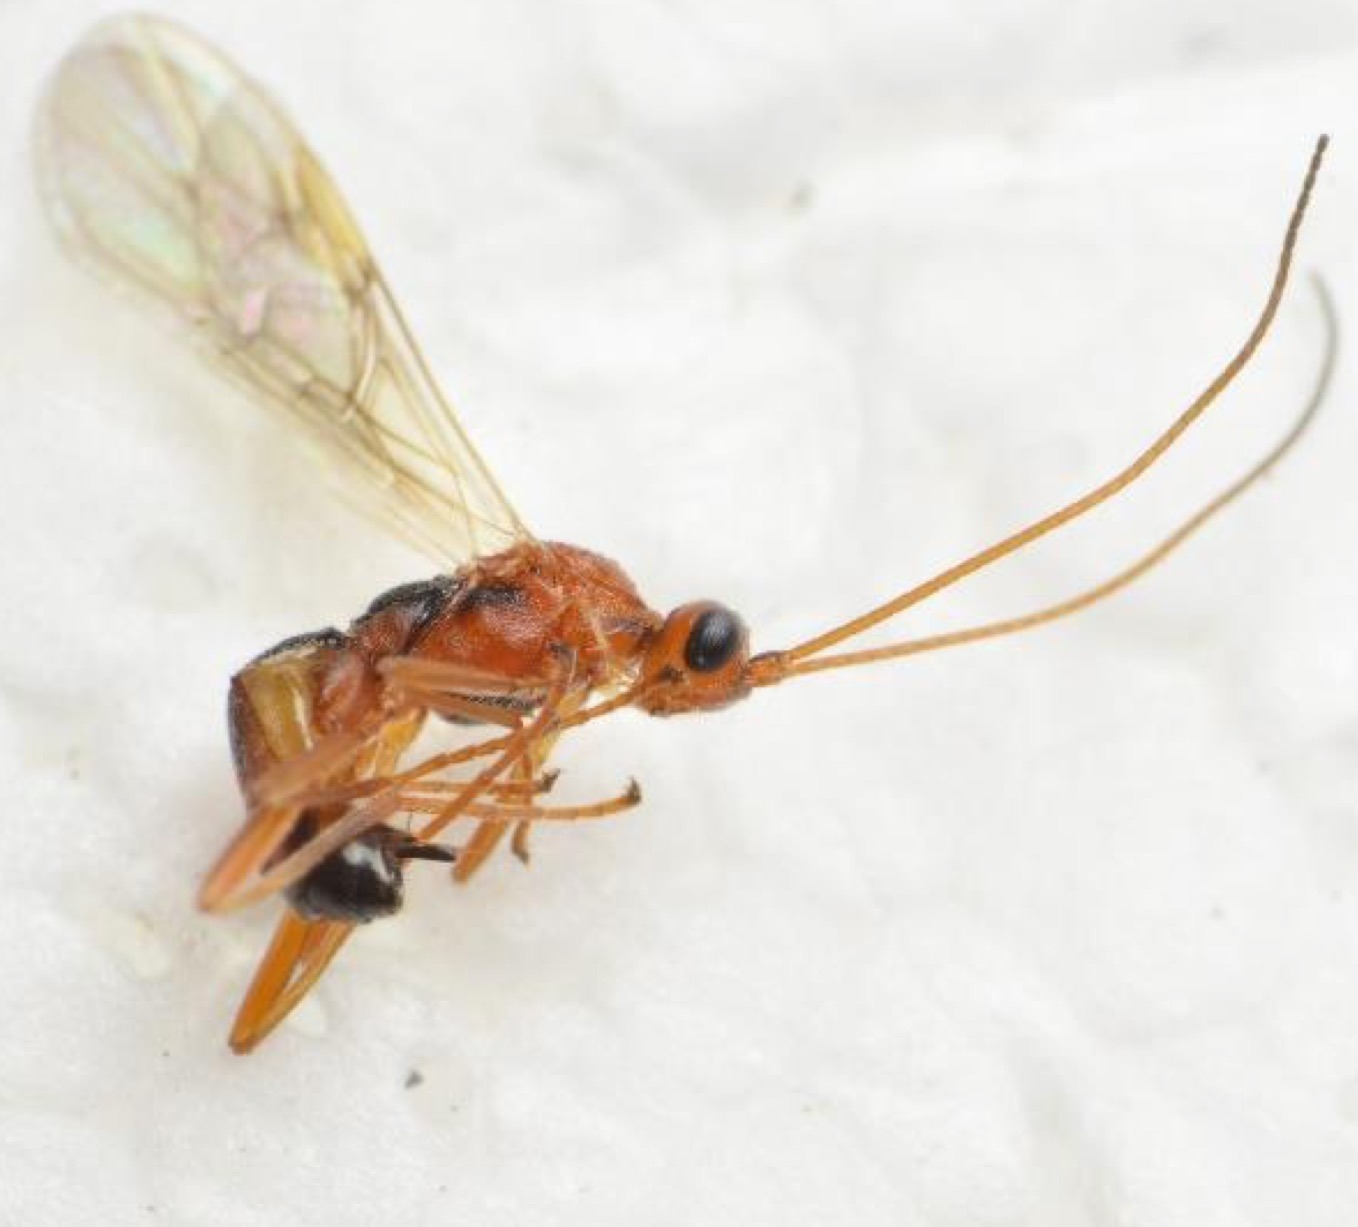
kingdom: Animalia
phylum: Arthropoda
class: Insecta
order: Hymenoptera
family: Braconidae
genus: Aleiodes
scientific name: Aleiodes gastritor
